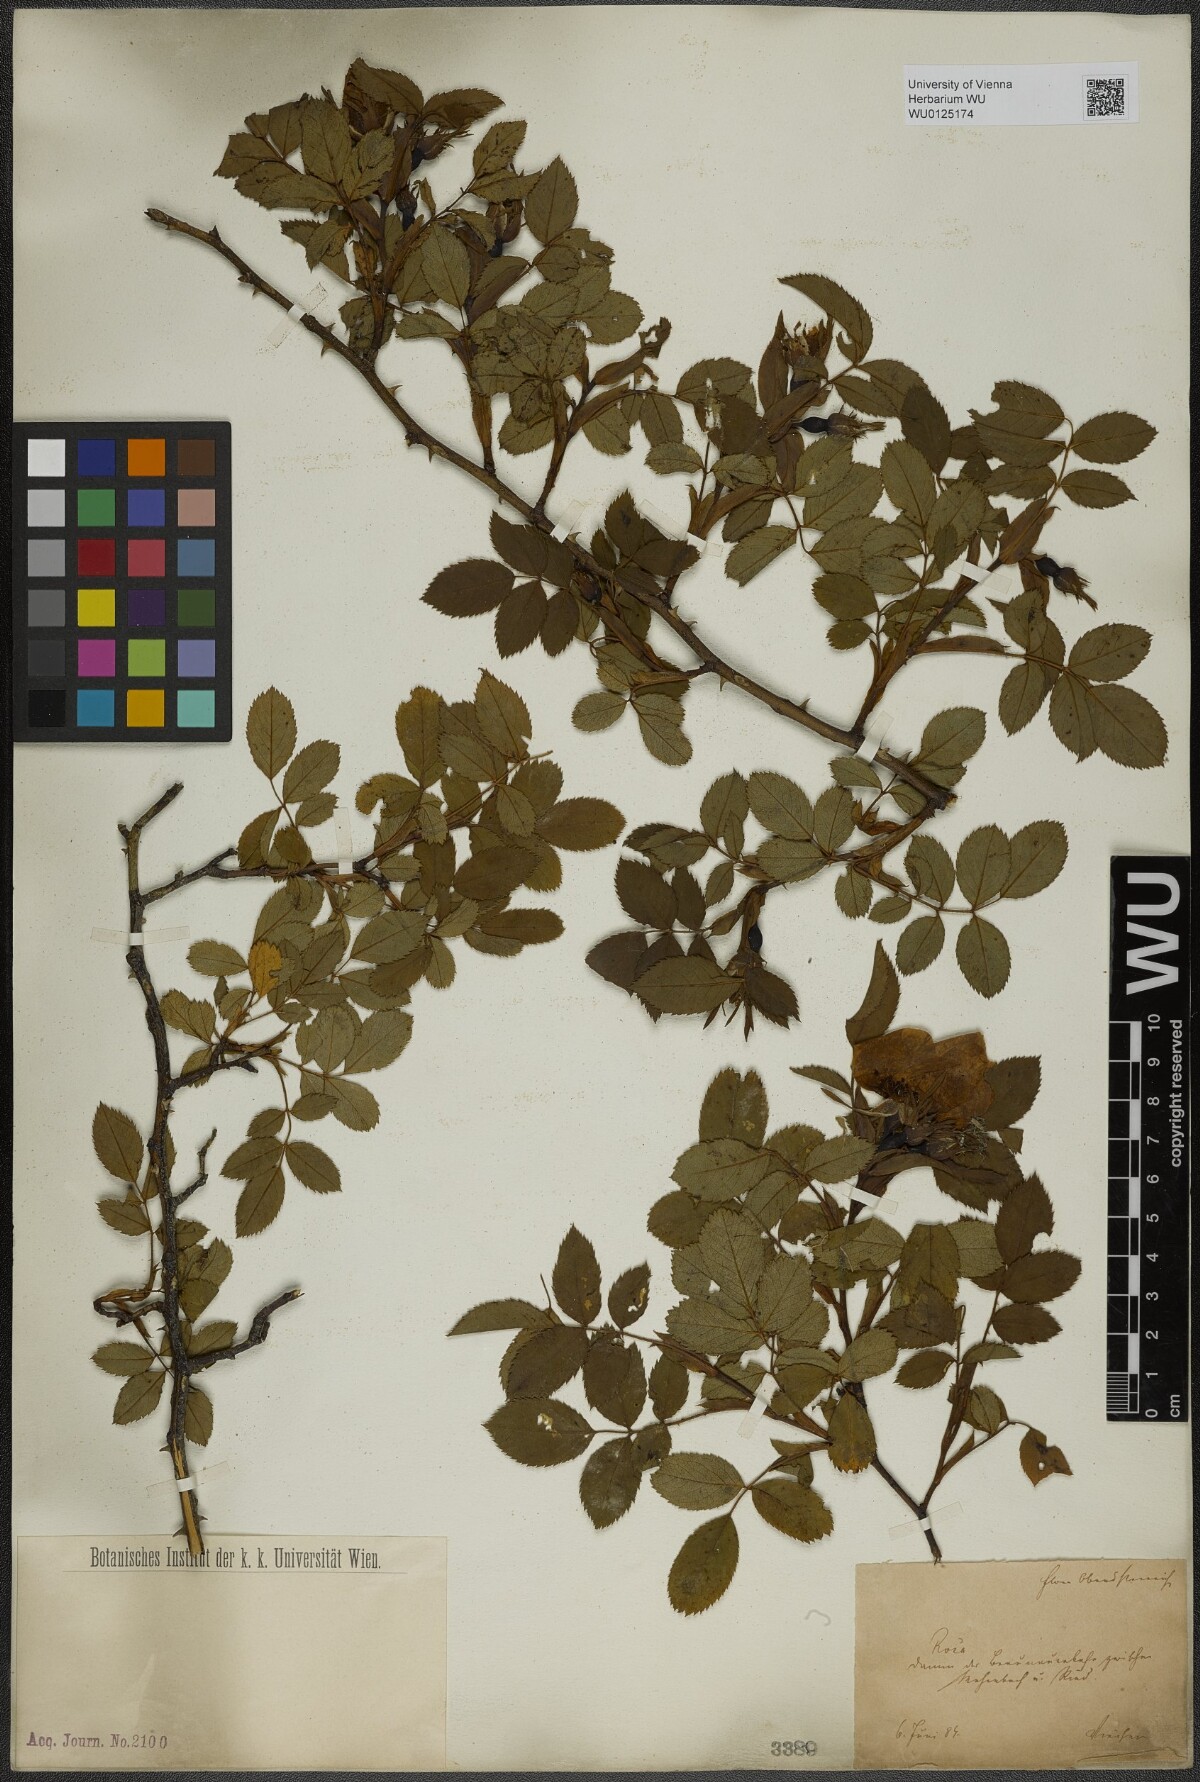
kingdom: Plantae
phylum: Tracheophyta
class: Magnoliopsida
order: Rosales
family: Rosaceae
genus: Rosa
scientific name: Rosa
